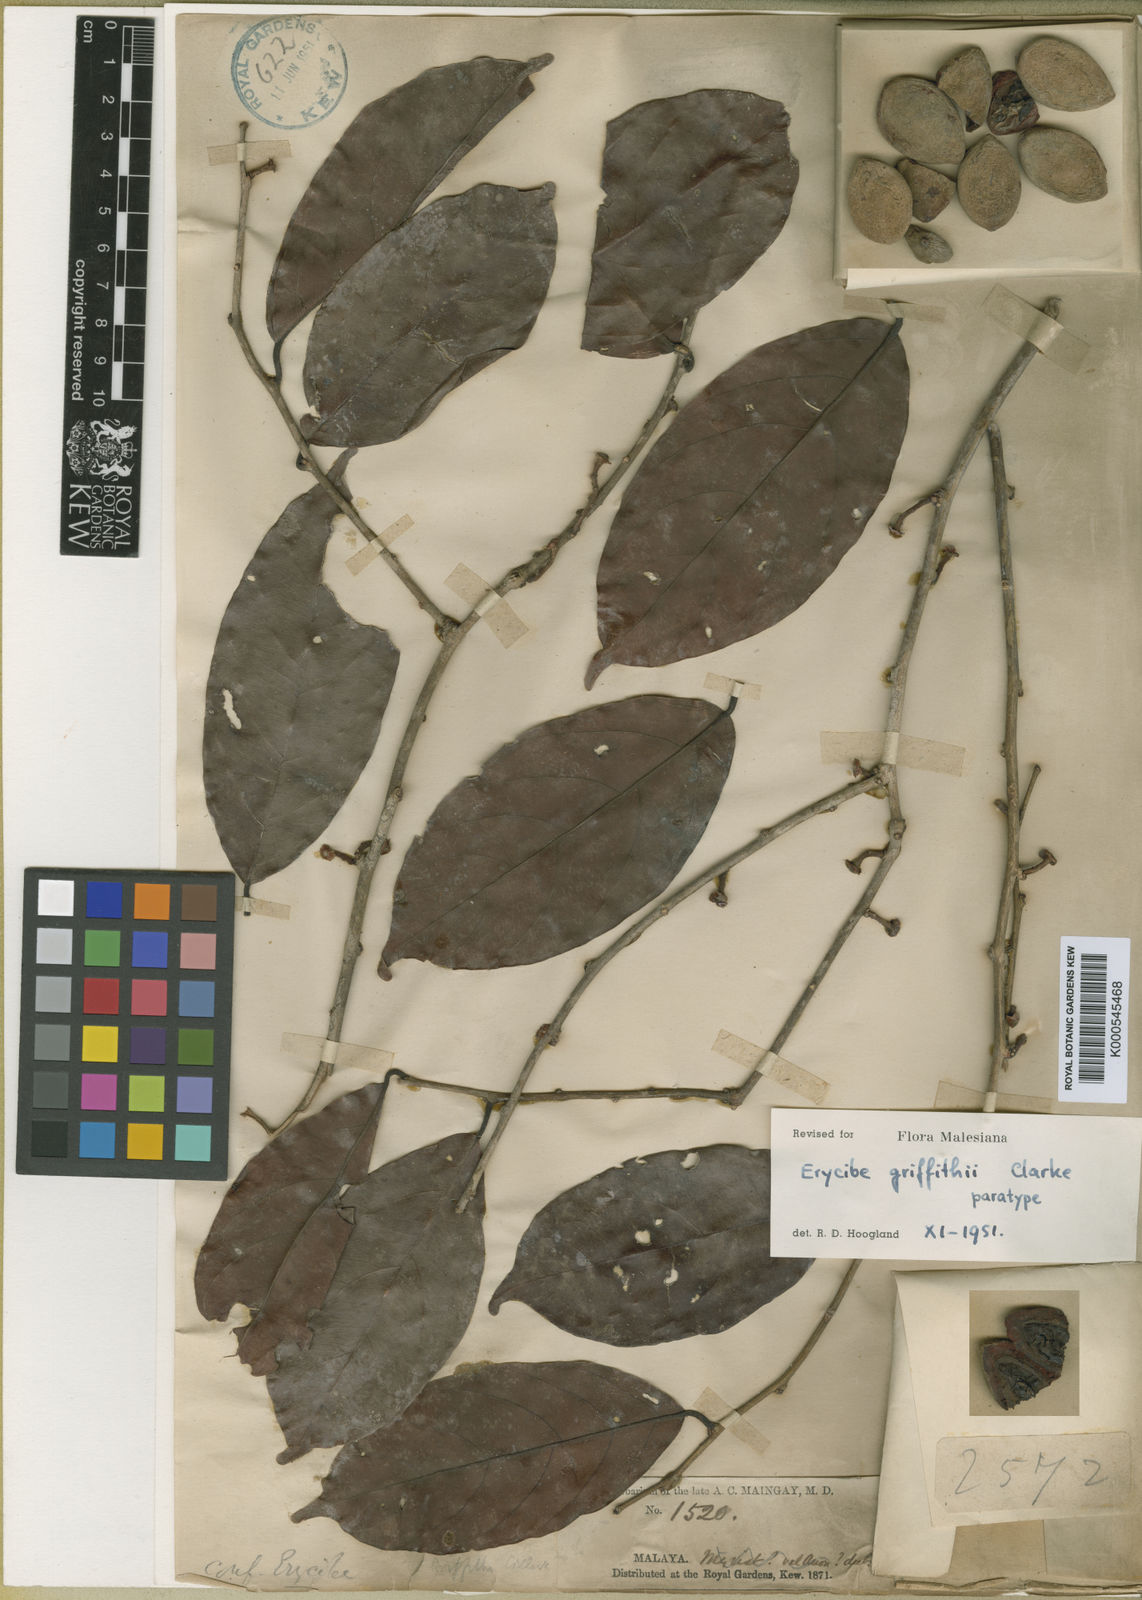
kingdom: Plantae
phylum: Tracheophyta
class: Magnoliopsida
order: Solanales
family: Convolvulaceae
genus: Erycibe
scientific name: Erycibe griffithii
